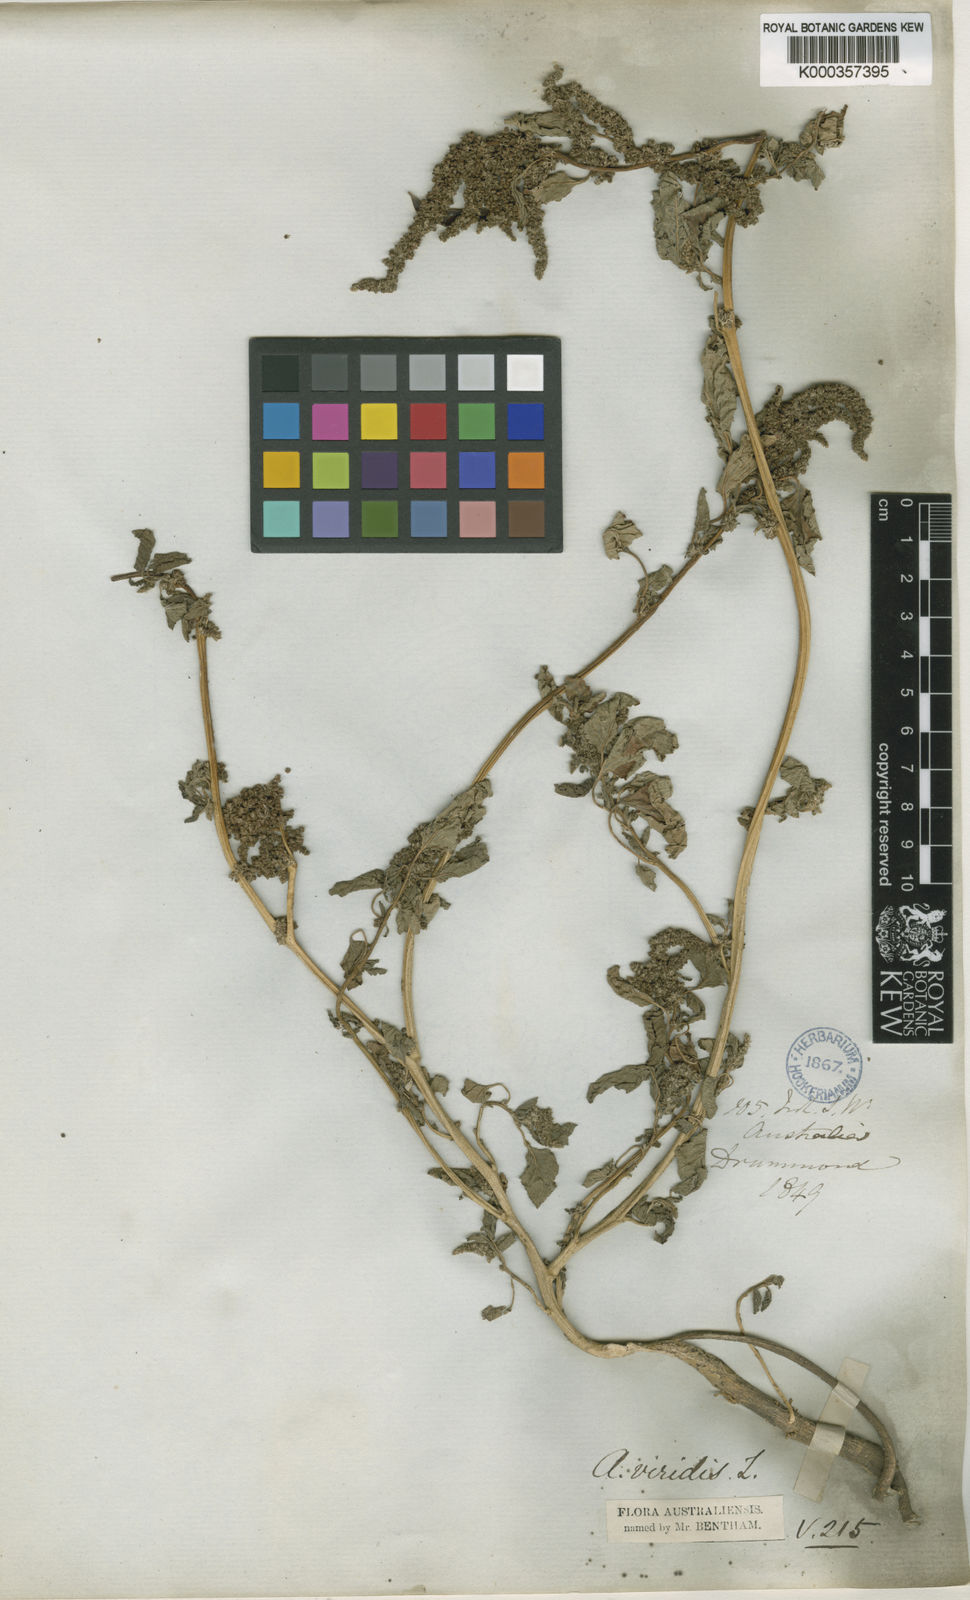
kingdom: Plantae
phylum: Tracheophyta
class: Magnoliopsida
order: Caryophyllales
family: Amaranthaceae
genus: Amaranthus
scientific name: Amaranthus viridis
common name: Slender amaranth
